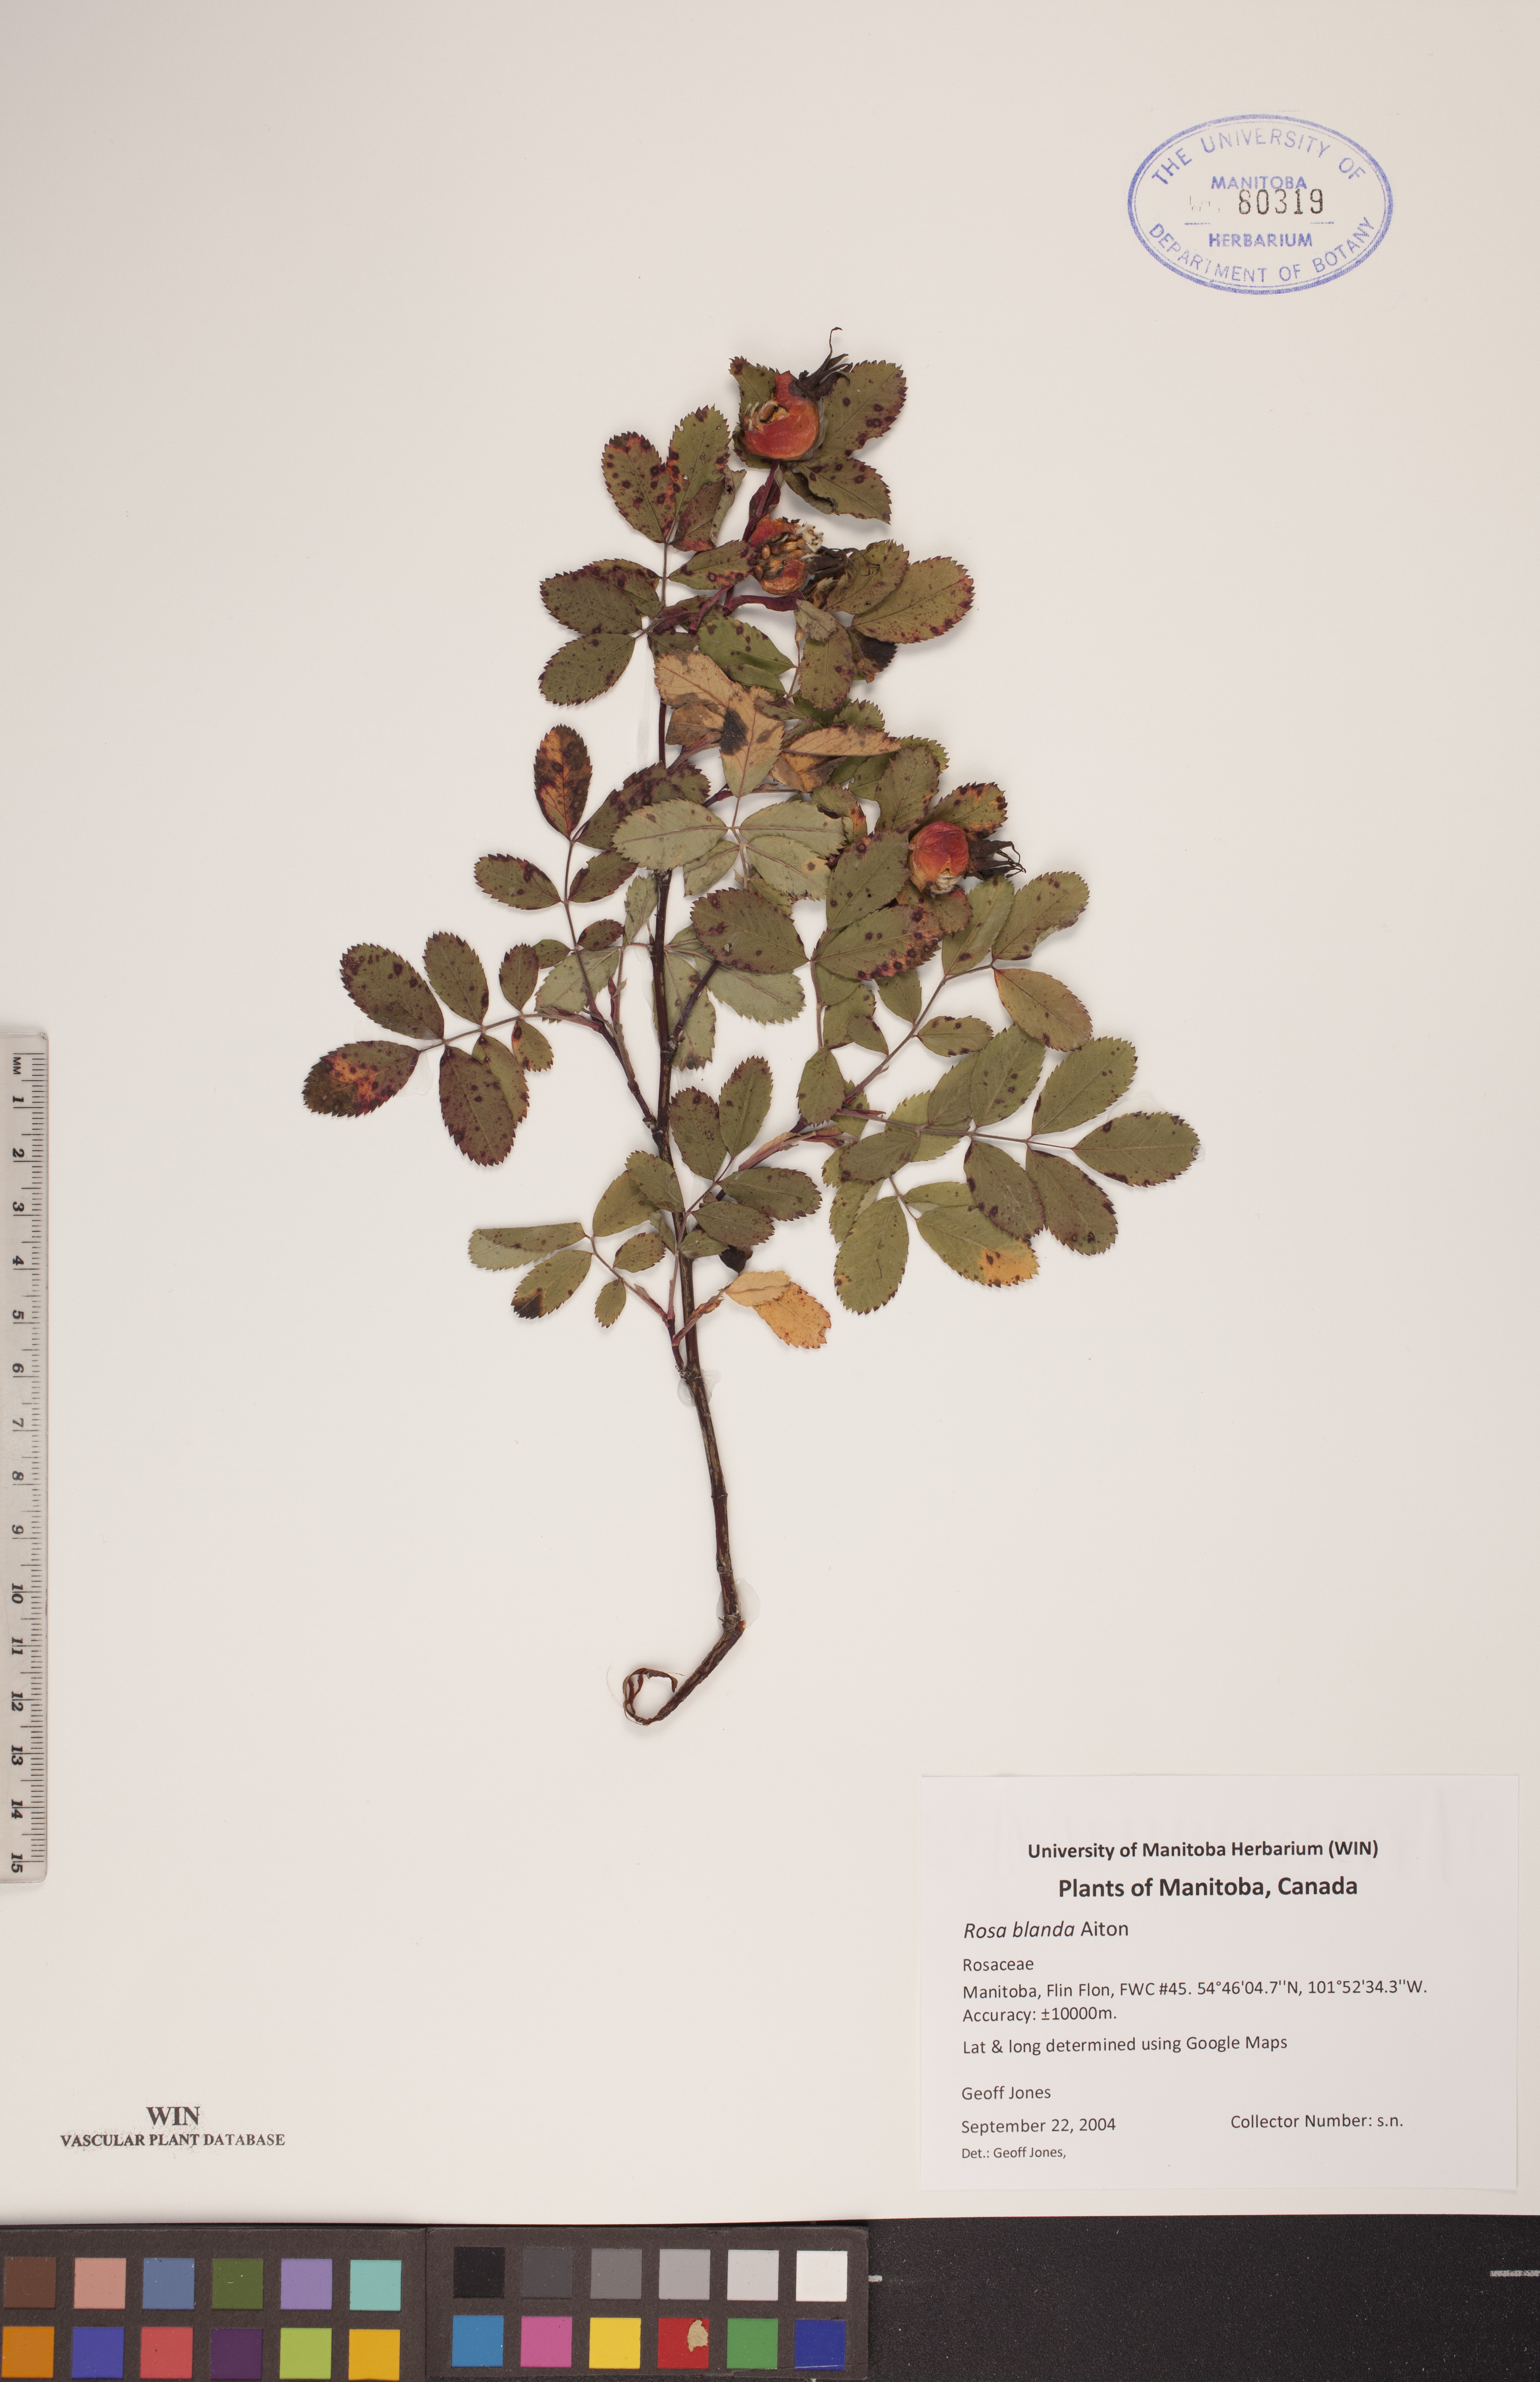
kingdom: Plantae
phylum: Tracheophyta
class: Magnoliopsida
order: Rosales
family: Rosaceae
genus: Rosa
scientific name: Rosa blanda
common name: Smooth rose
